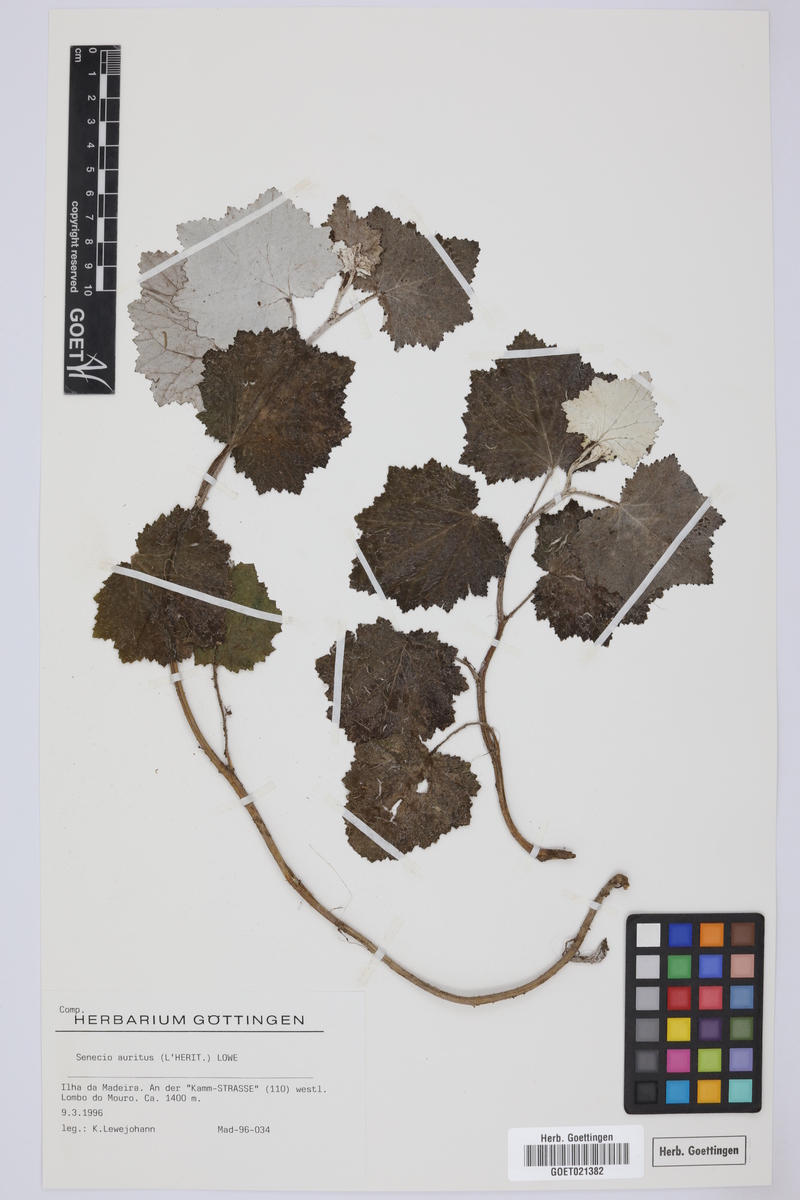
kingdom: Plantae
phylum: Tracheophyta
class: Magnoliopsida
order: Asterales
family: Asteraceae
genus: Pericallis
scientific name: Pericallis aurita
